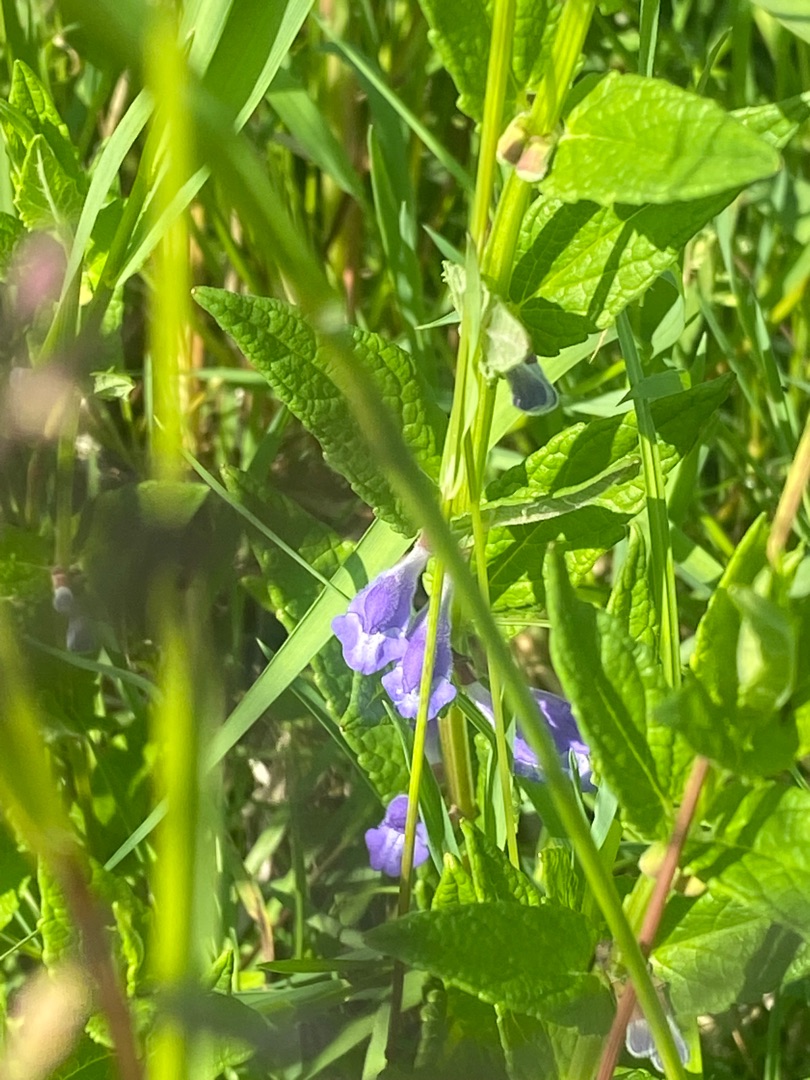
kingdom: Plantae
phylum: Tracheophyta
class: Magnoliopsida
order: Lamiales
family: Lamiaceae
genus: Scutellaria
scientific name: Scutellaria galericulata
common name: Almindelig skjolddrager
